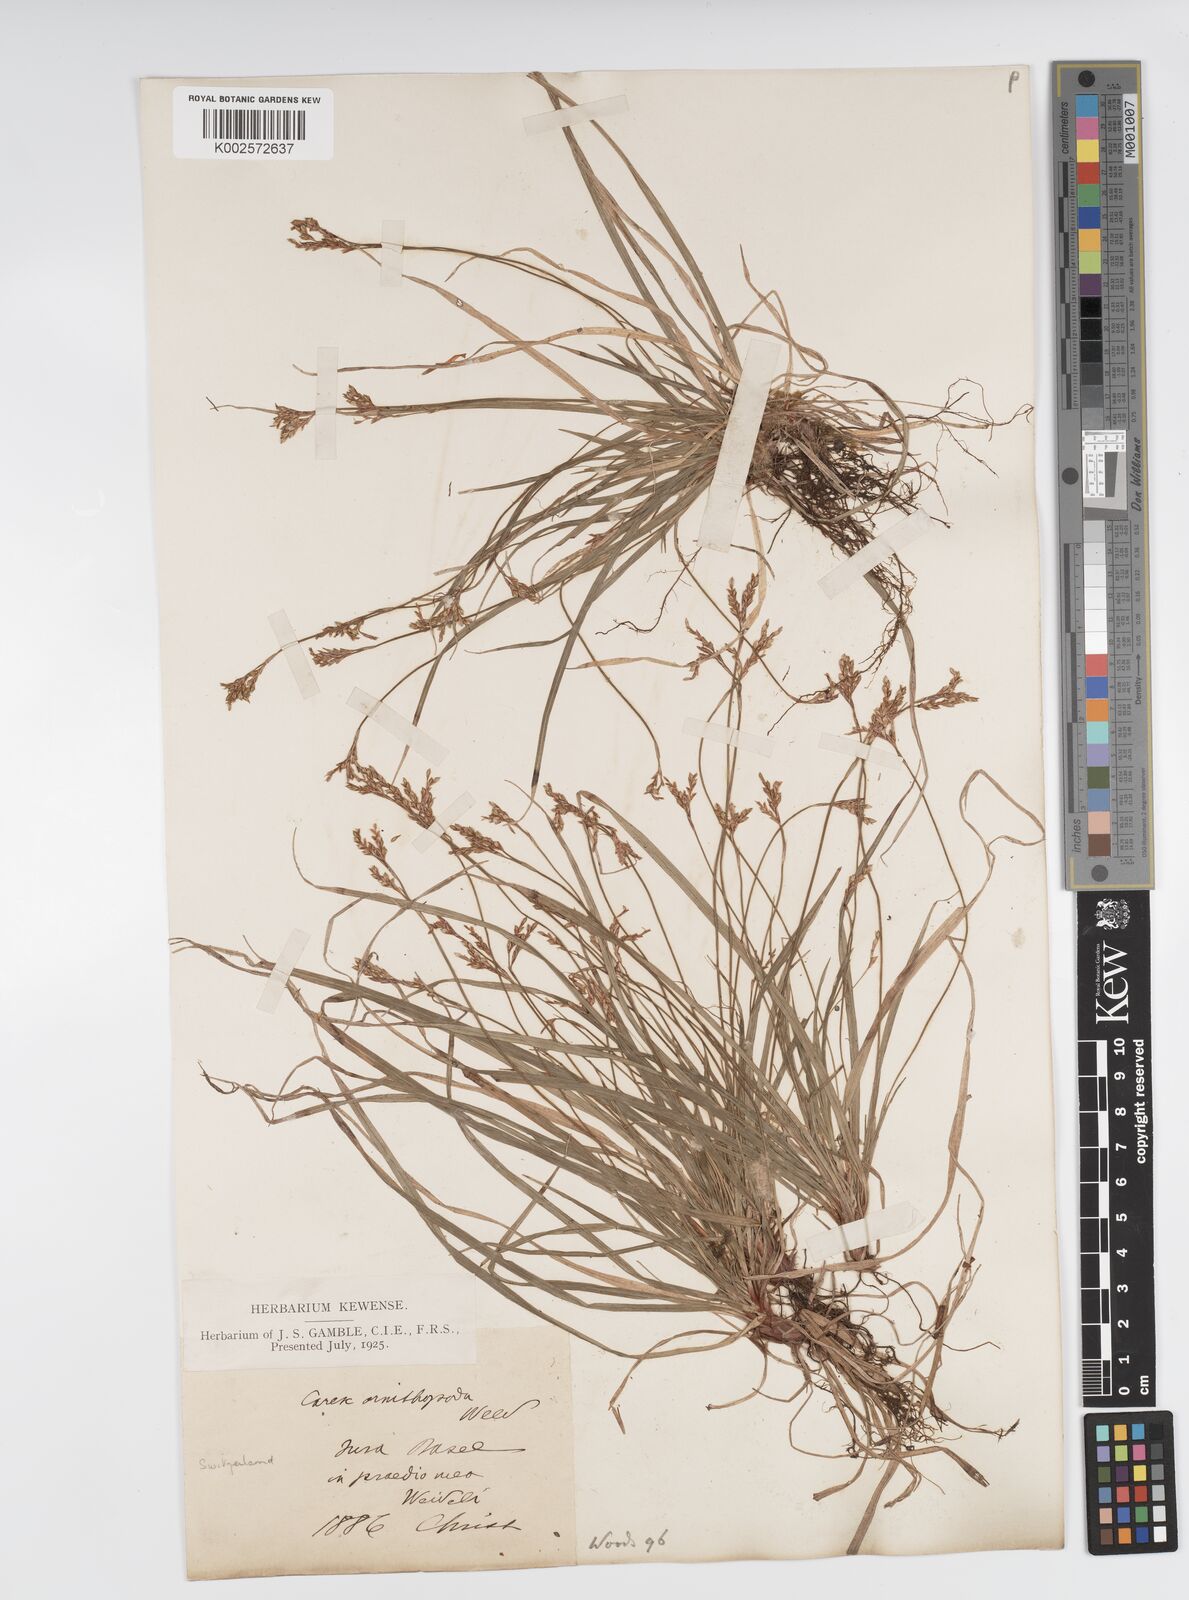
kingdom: Plantae
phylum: Tracheophyta
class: Liliopsida
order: Poales
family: Cyperaceae
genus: Carex
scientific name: Carex ornithopoda
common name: Bird's-foot sedge
